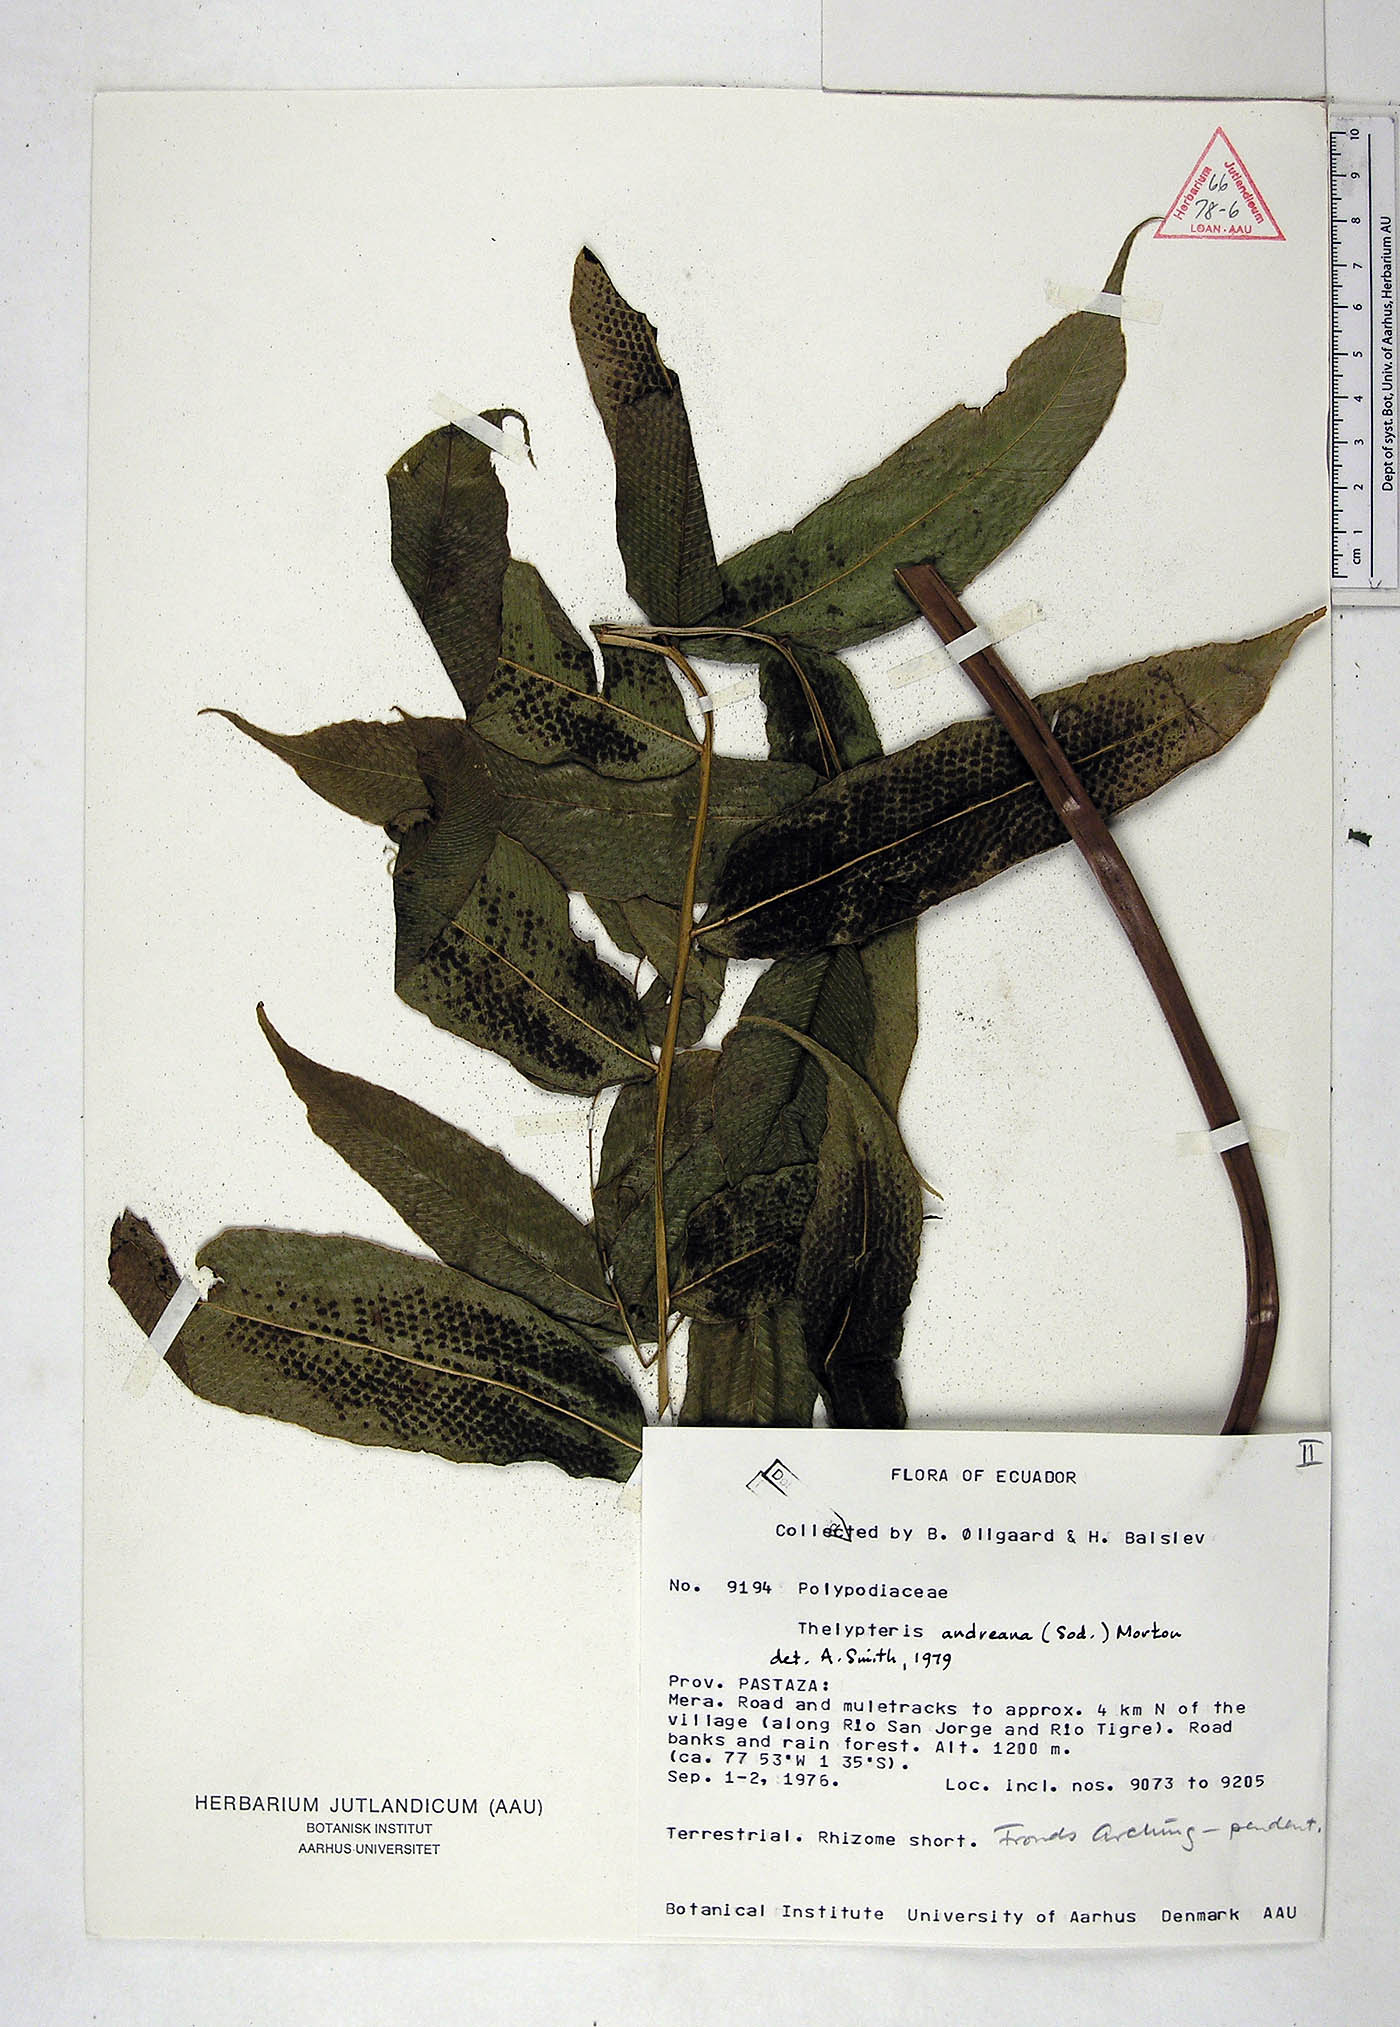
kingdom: Plantae
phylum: Tracheophyta
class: Polypodiopsida
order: Polypodiales
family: Thelypteridaceae
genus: Meniscium
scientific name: Meniscium andreanum
